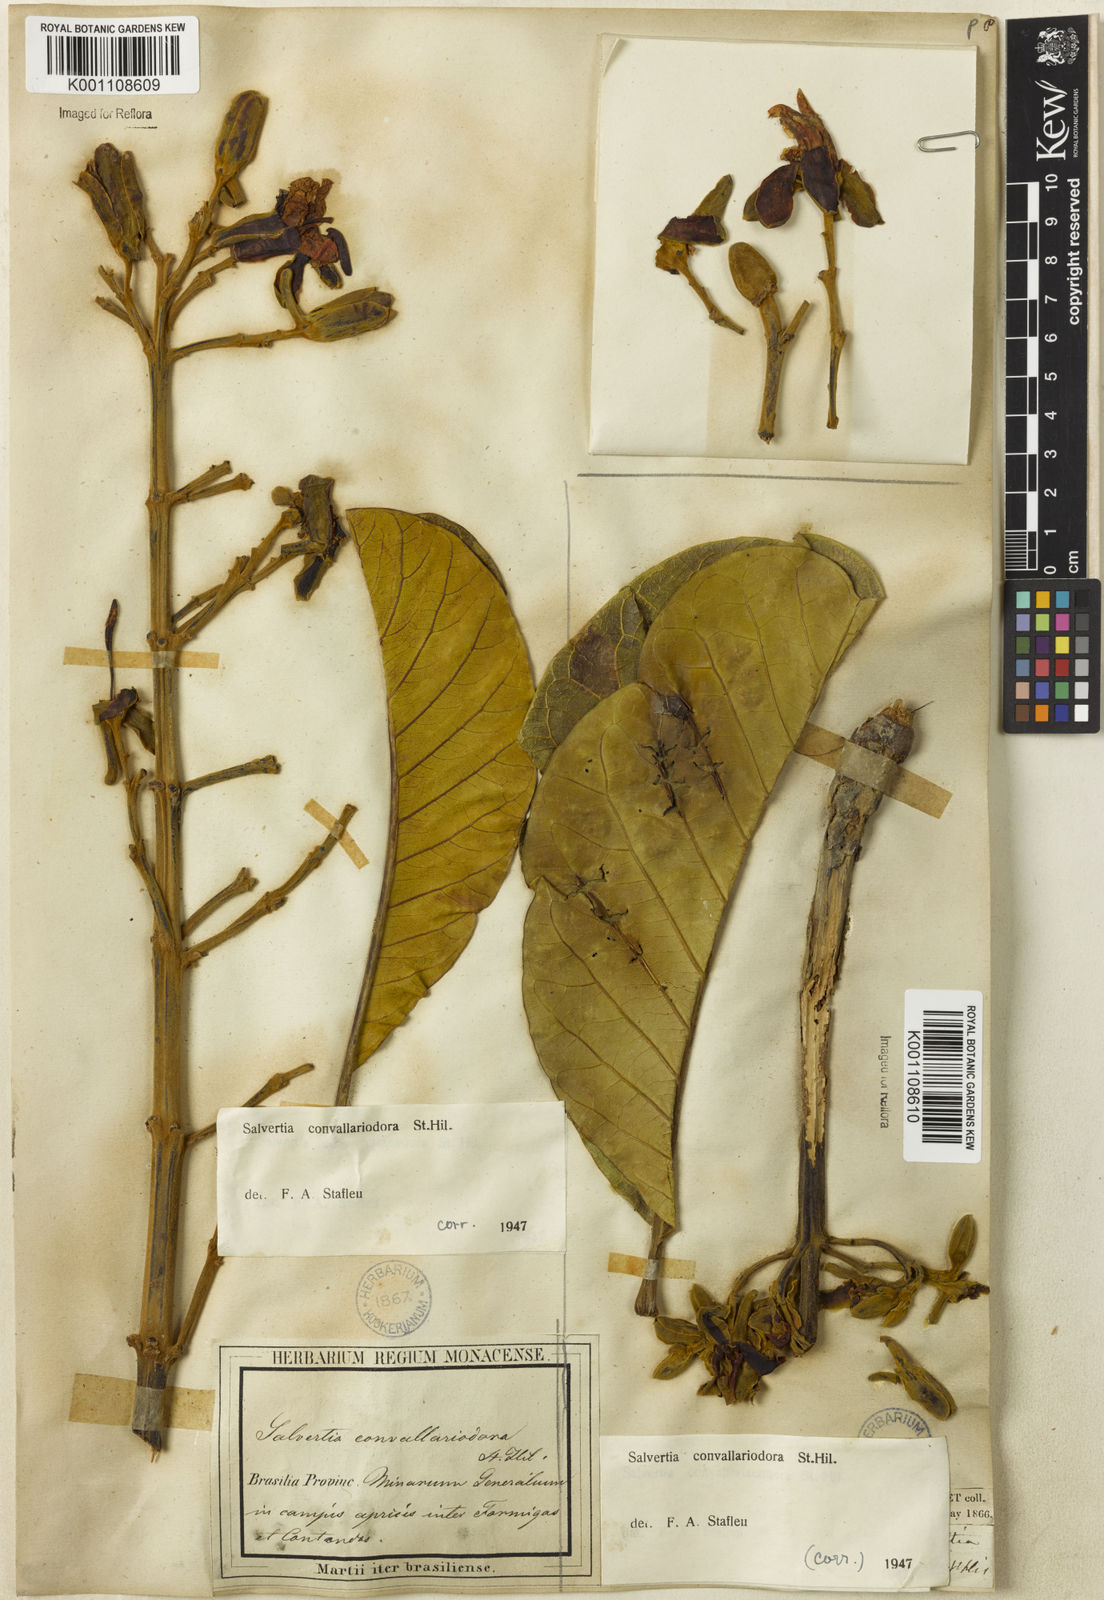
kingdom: Plantae
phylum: Tracheophyta
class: Magnoliopsida
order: Myrtales
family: Vochysiaceae
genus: Salvertia
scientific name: Salvertia convallariodora
